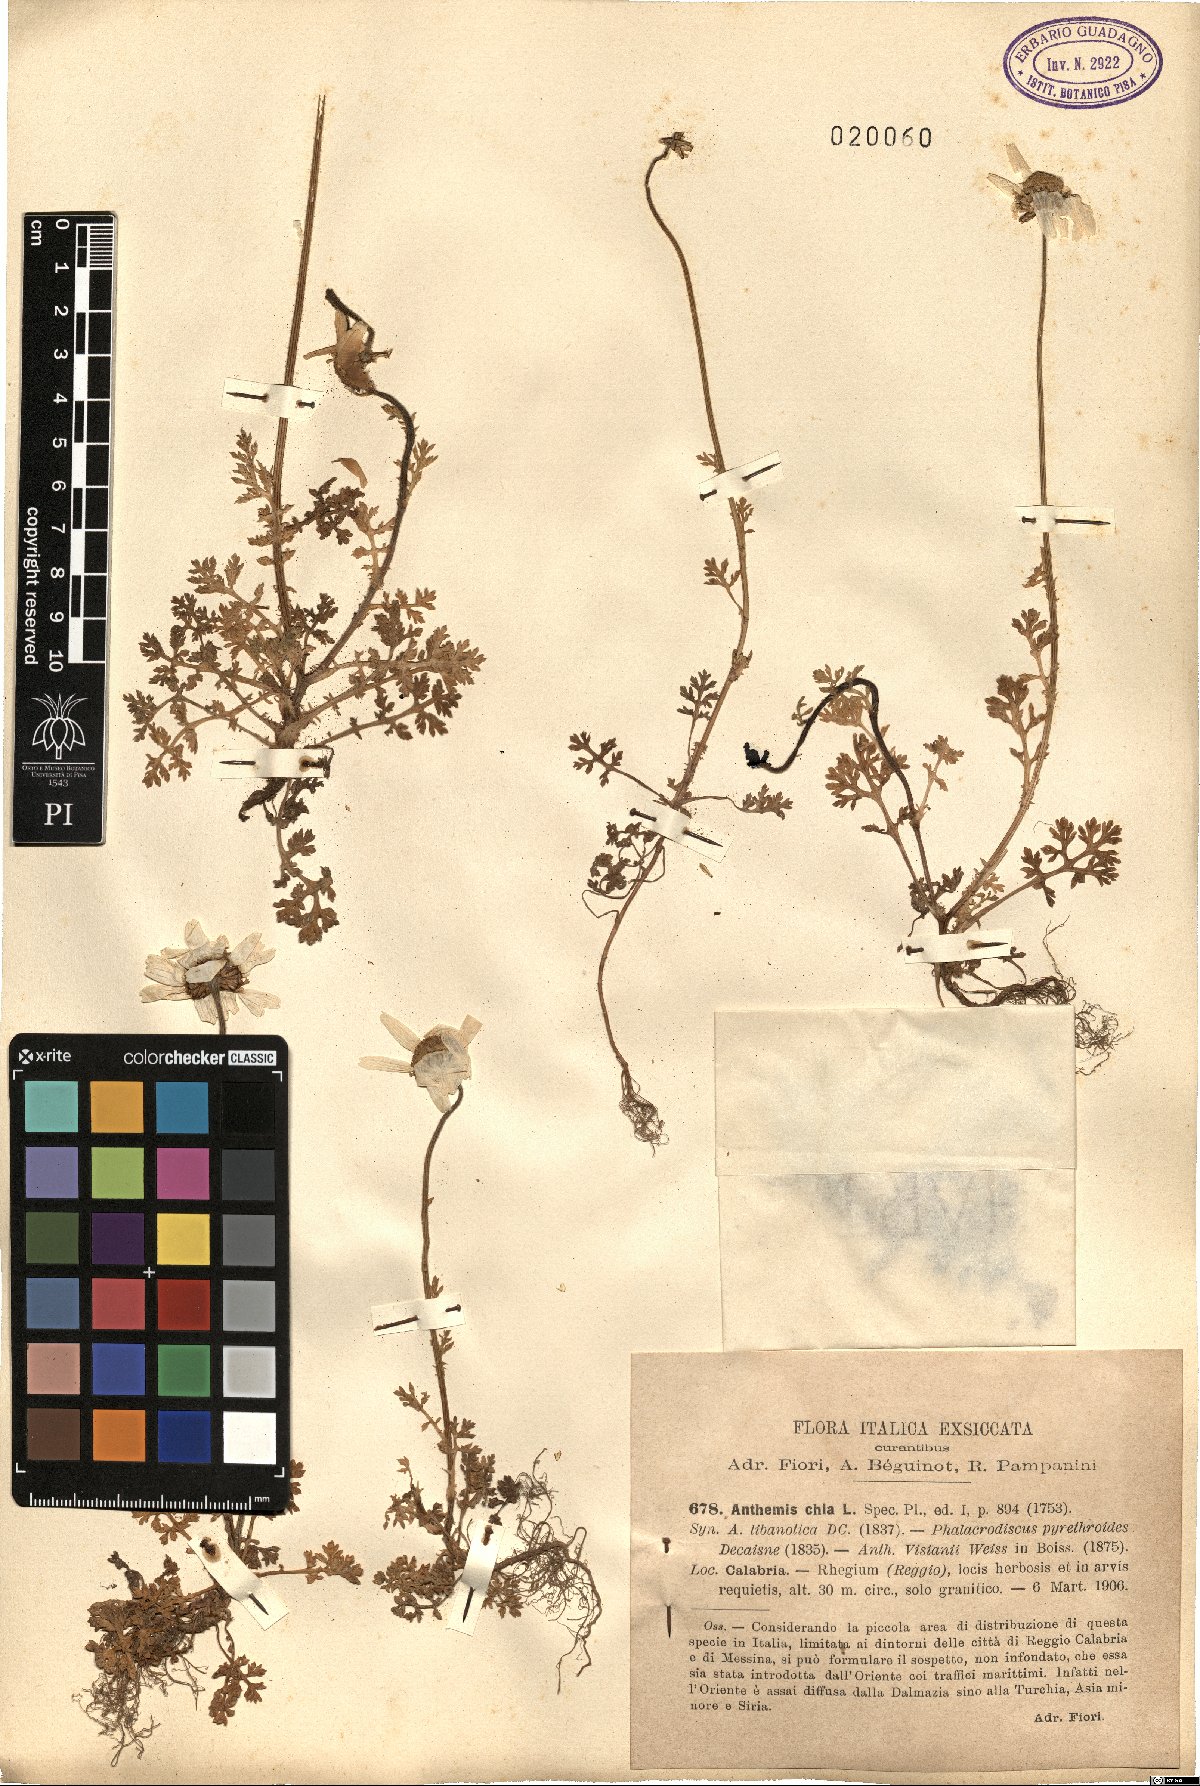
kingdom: Plantae
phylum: Tracheophyta
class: Magnoliopsida
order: Asterales
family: Asteraceae
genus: Anthemis
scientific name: Anthemis chia
